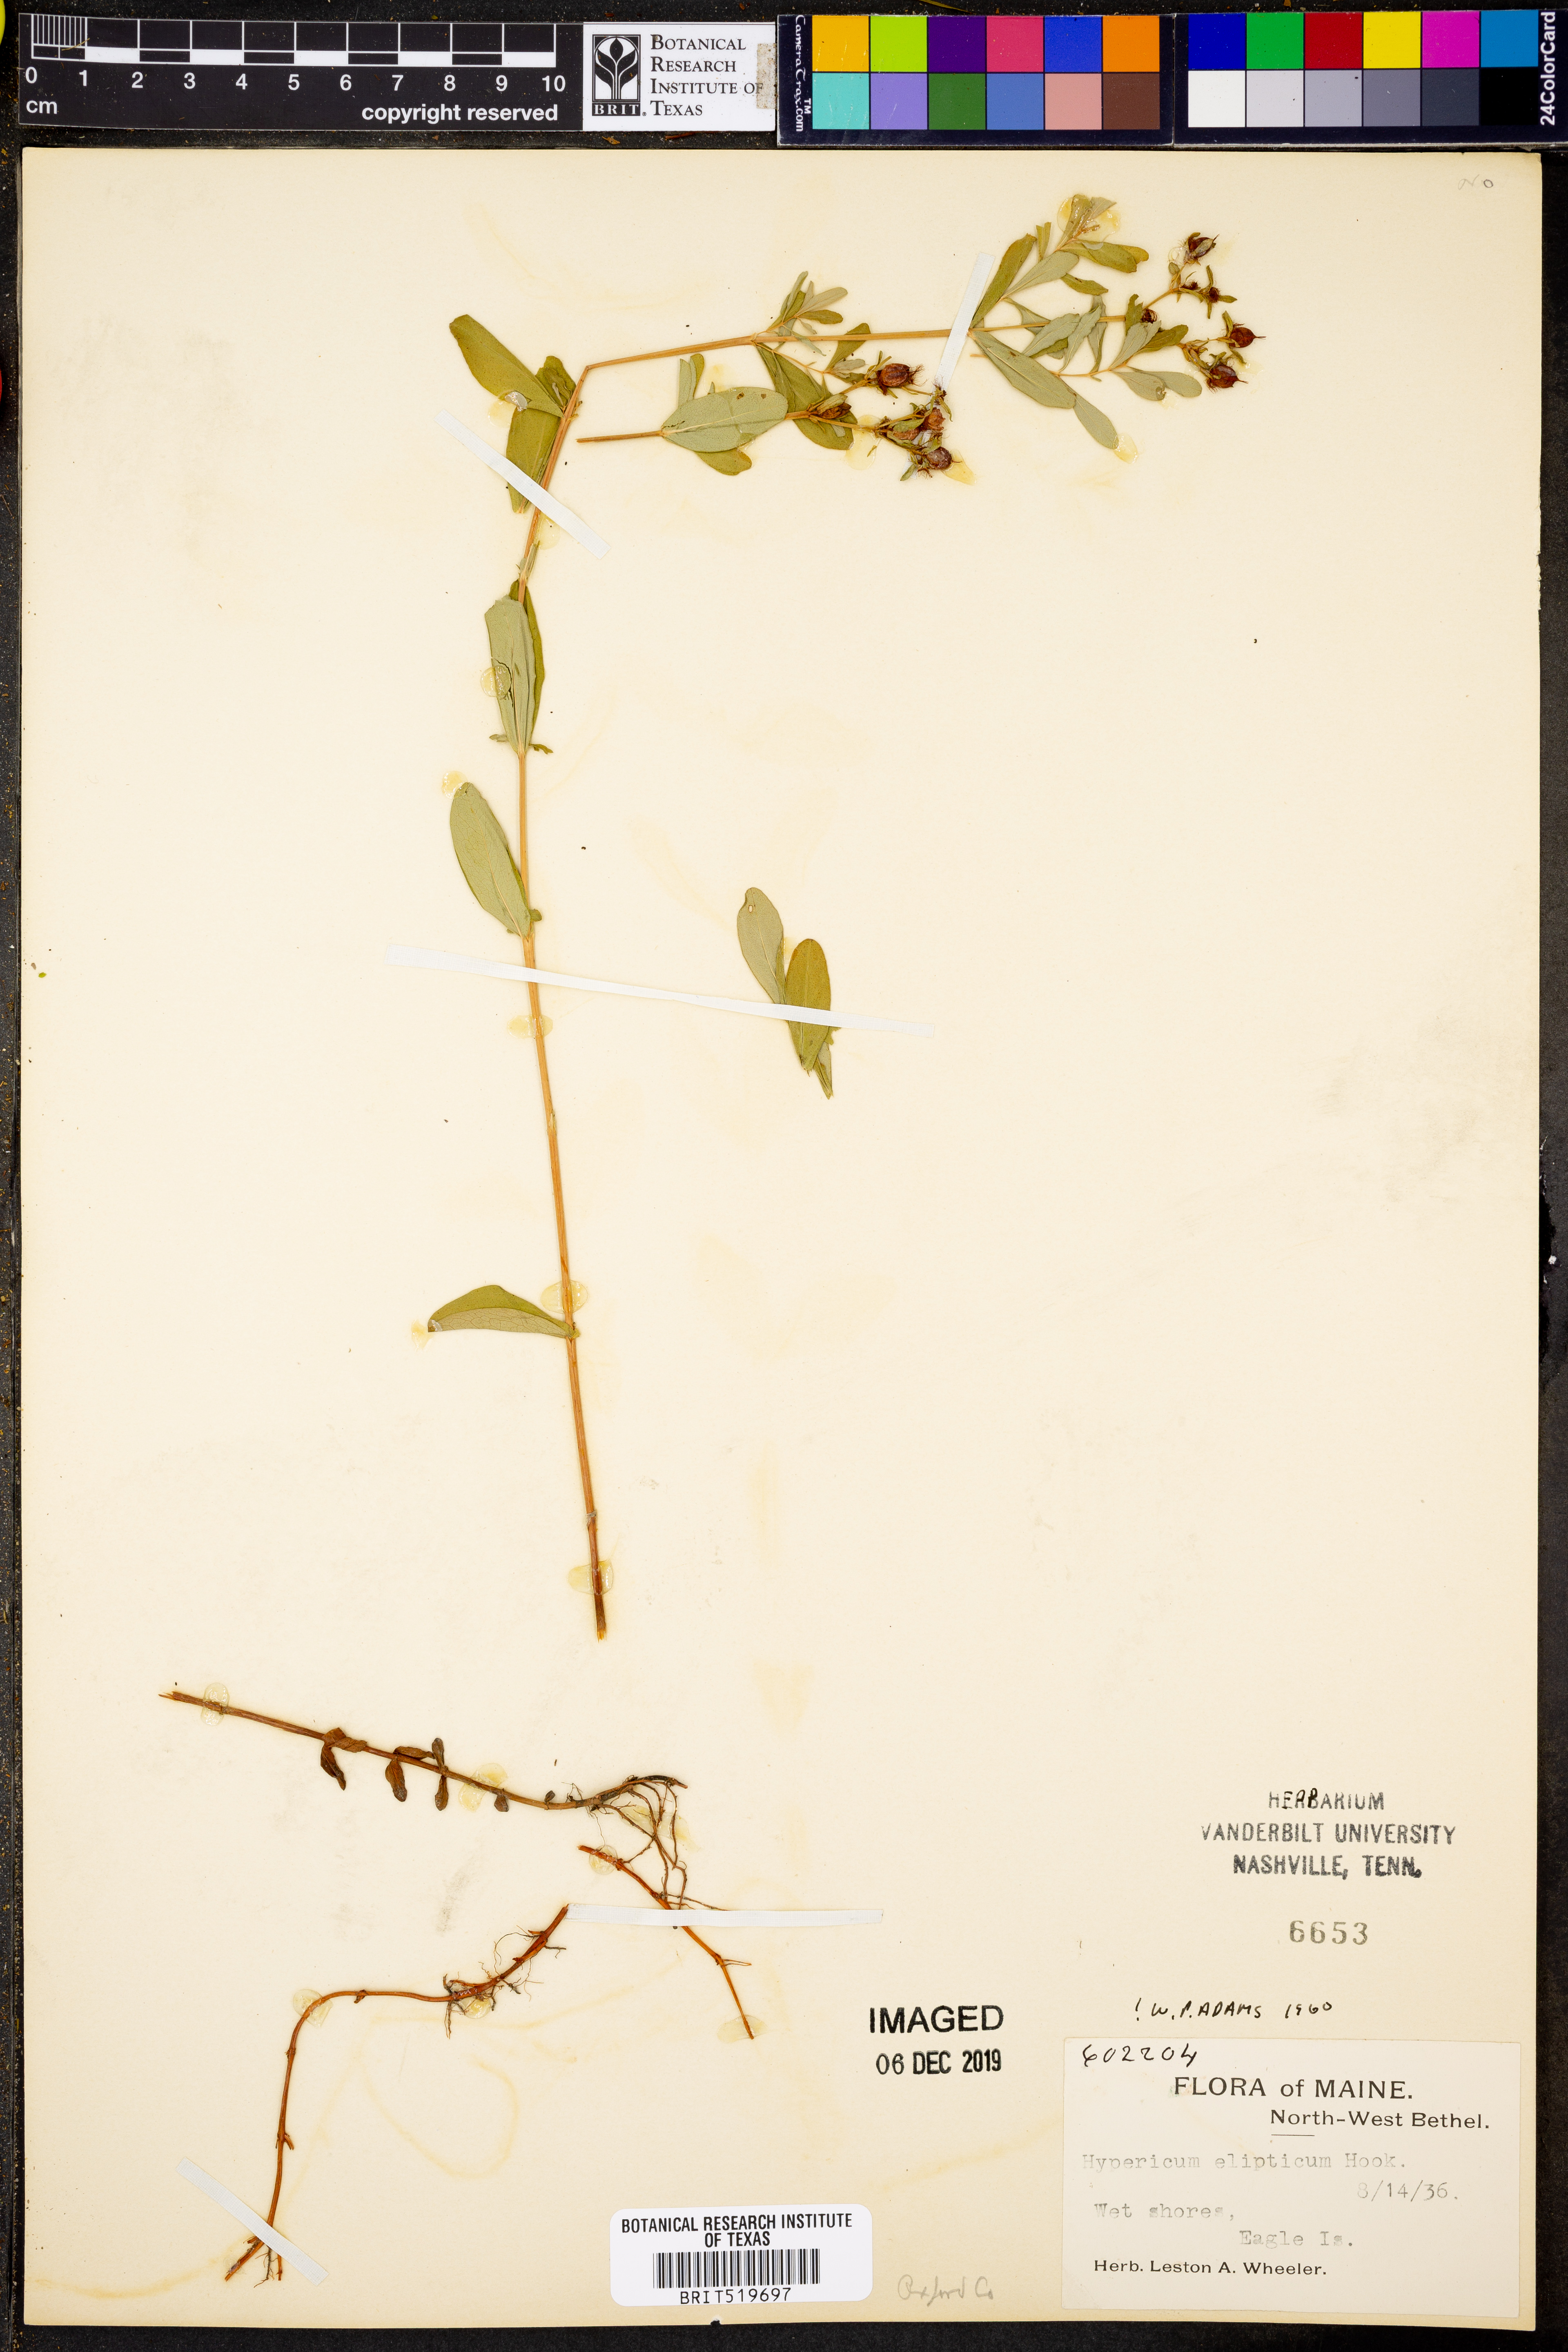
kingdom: Plantae
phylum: Tracheophyta
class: Magnoliopsida
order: Malpighiales
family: Hypericaceae
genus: Hypericum
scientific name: Hypericum ellipticum
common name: Elliptic st. john's-wort
